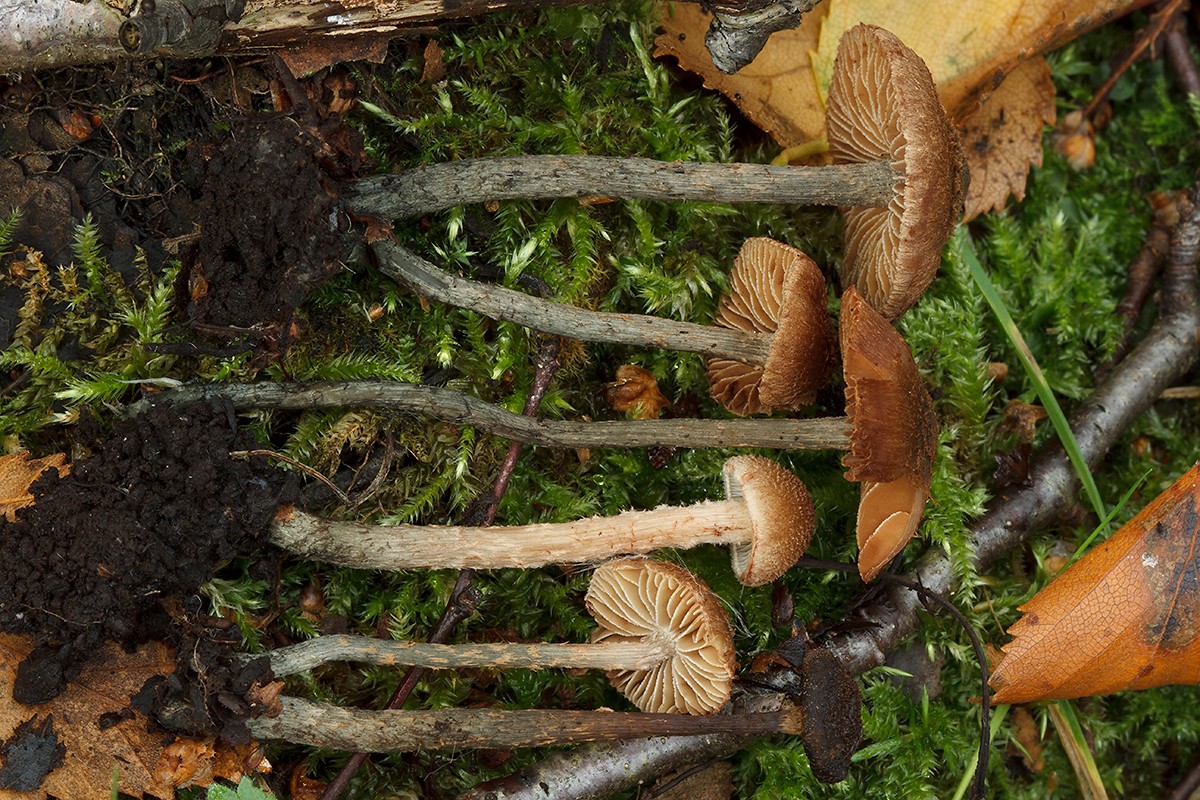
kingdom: Fungi
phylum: Basidiomycota
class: Agaricomycetes
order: Agaricales
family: Inocybaceae
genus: Inosperma
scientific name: Inosperma calamistratum
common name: grønfodet trævlhat
